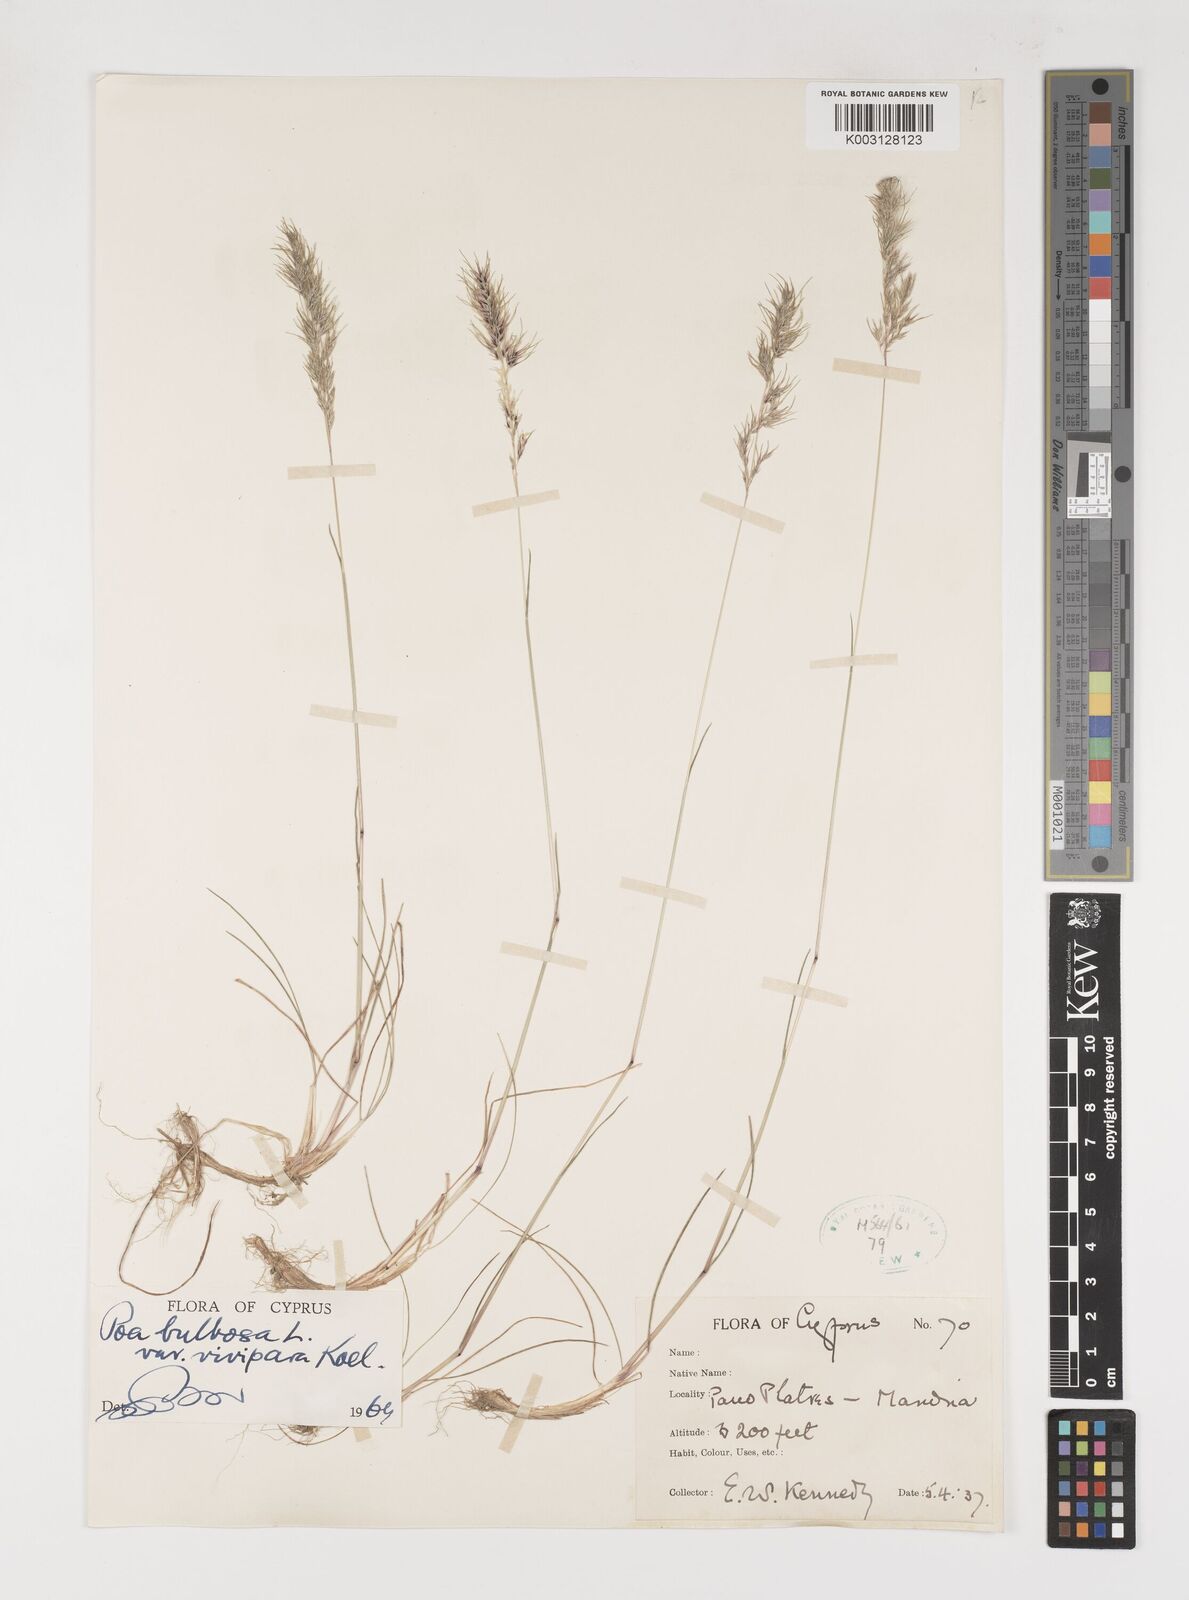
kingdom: Plantae
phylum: Tracheophyta
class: Liliopsida
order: Poales
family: Poaceae
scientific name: Poaceae
